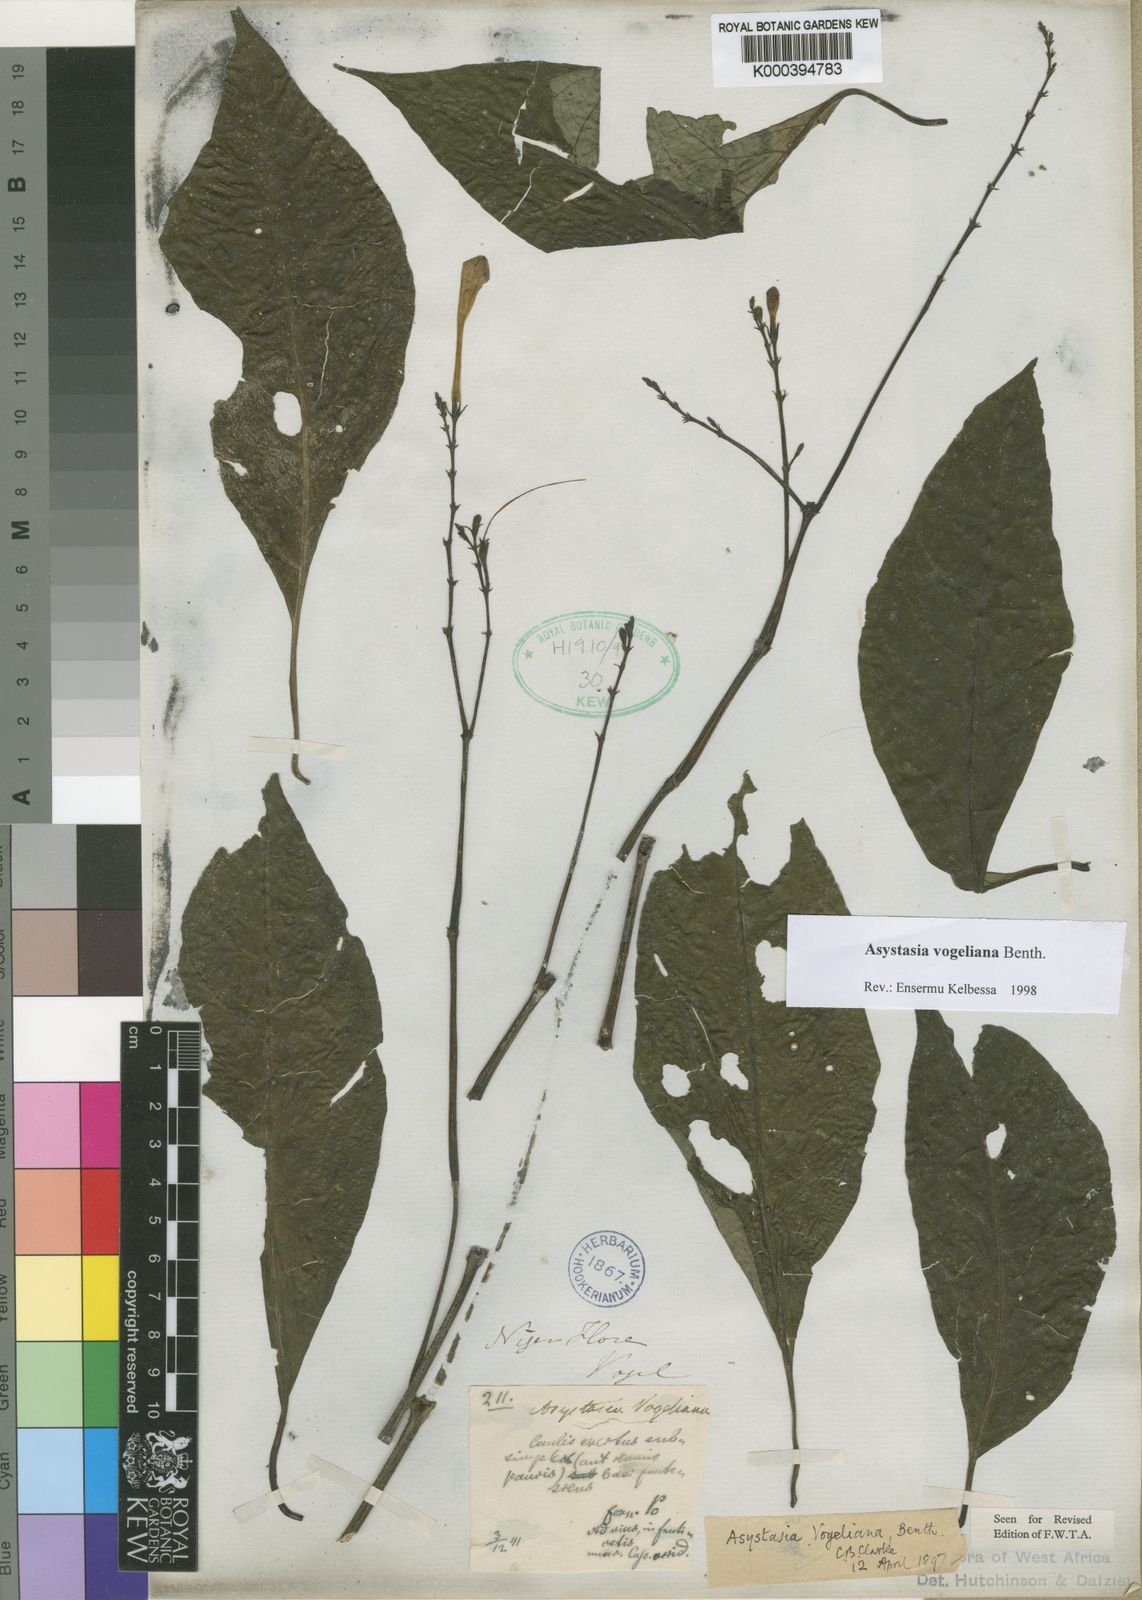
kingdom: Plantae
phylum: Tracheophyta
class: Magnoliopsida
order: Lamiales
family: Acanthaceae
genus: Asystasia
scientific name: Asystasia vogeliana
